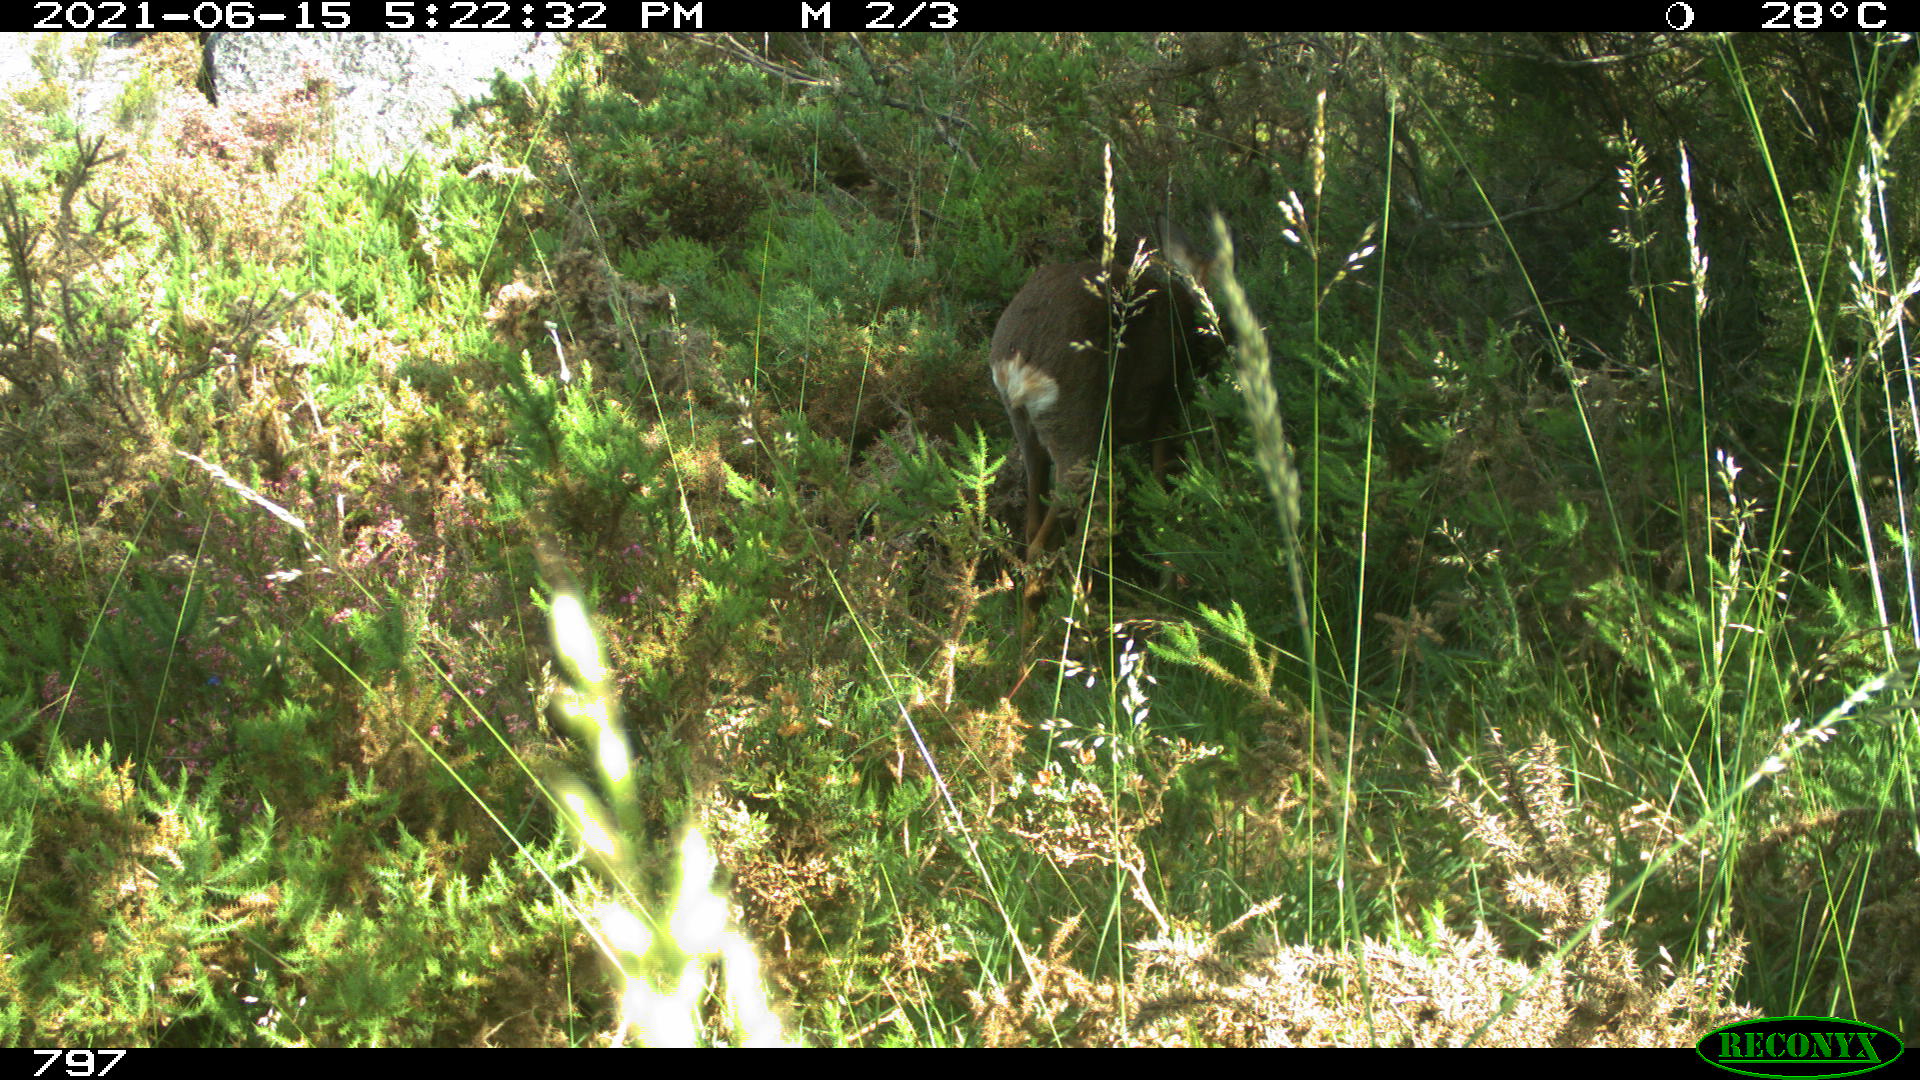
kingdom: Animalia
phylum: Chordata
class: Mammalia
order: Artiodactyla
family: Cervidae
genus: Capreolus
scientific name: Capreolus capreolus
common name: Western roe deer
